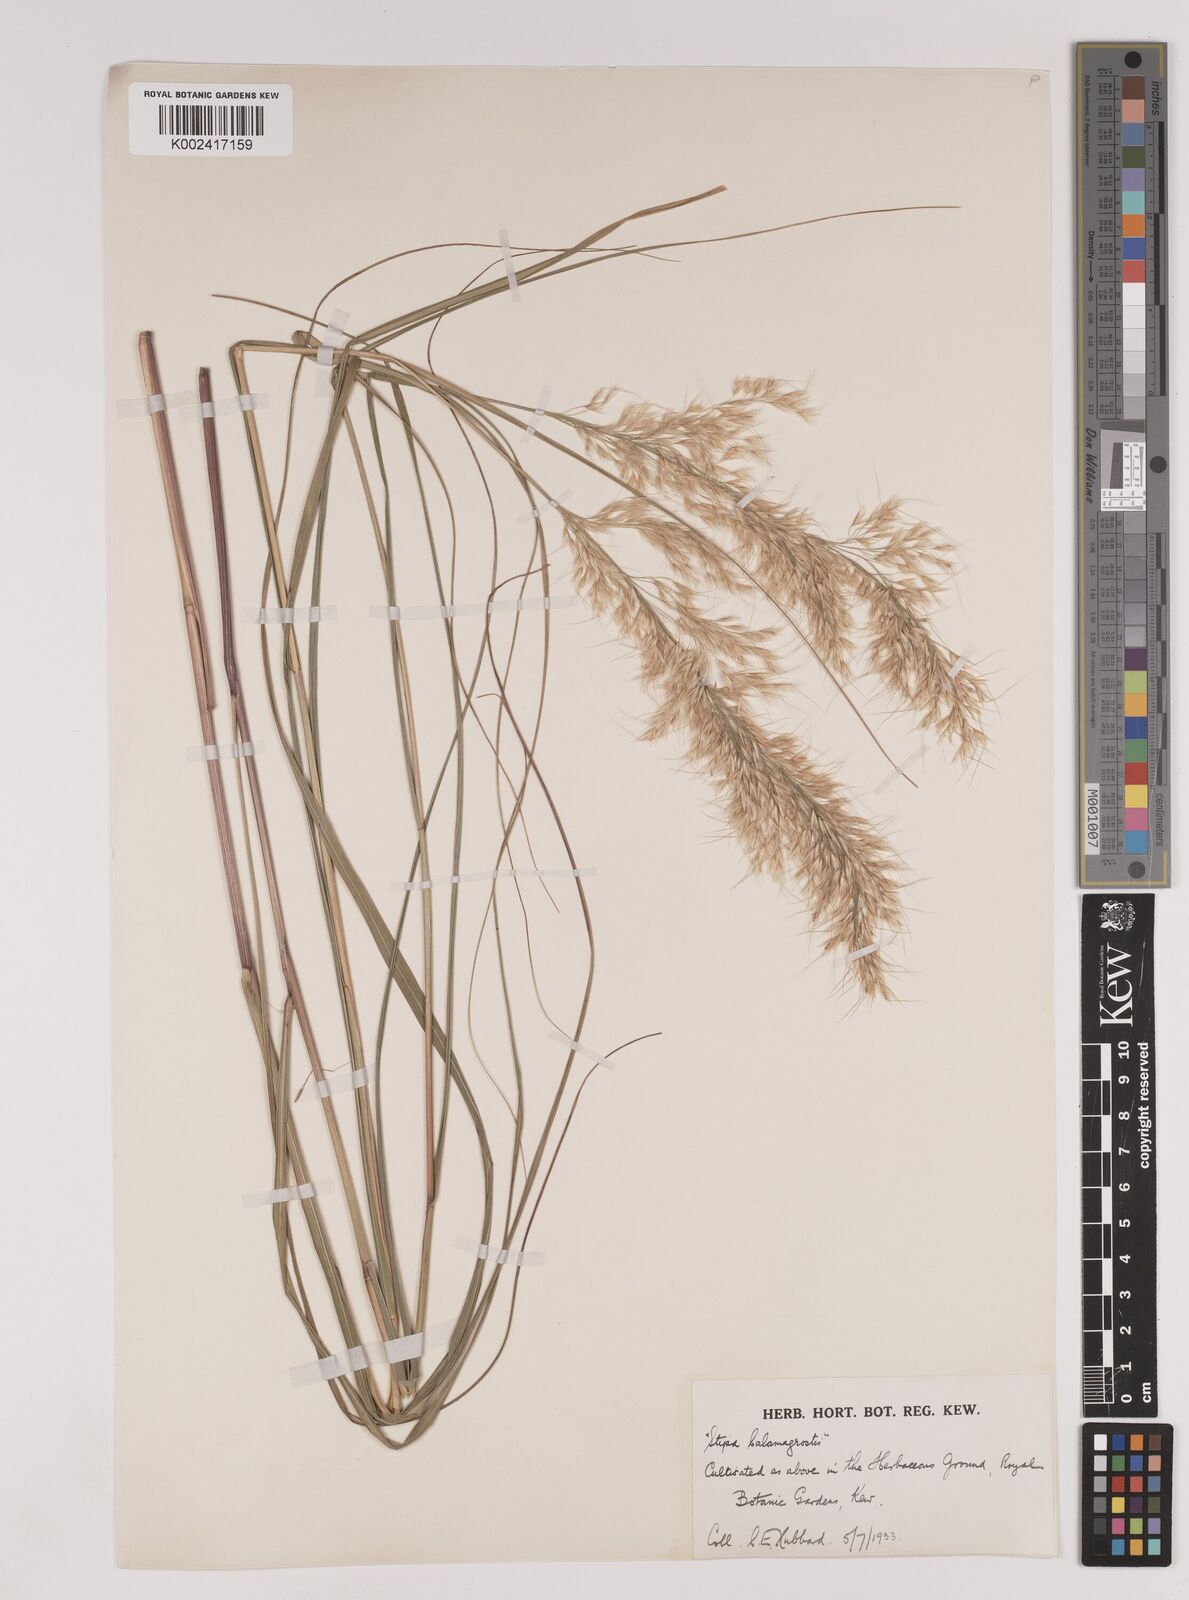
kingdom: Plantae
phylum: Tracheophyta
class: Liliopsida
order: Poales
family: Poaceae
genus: Achnatherum
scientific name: Achnatherum calamagrostis
